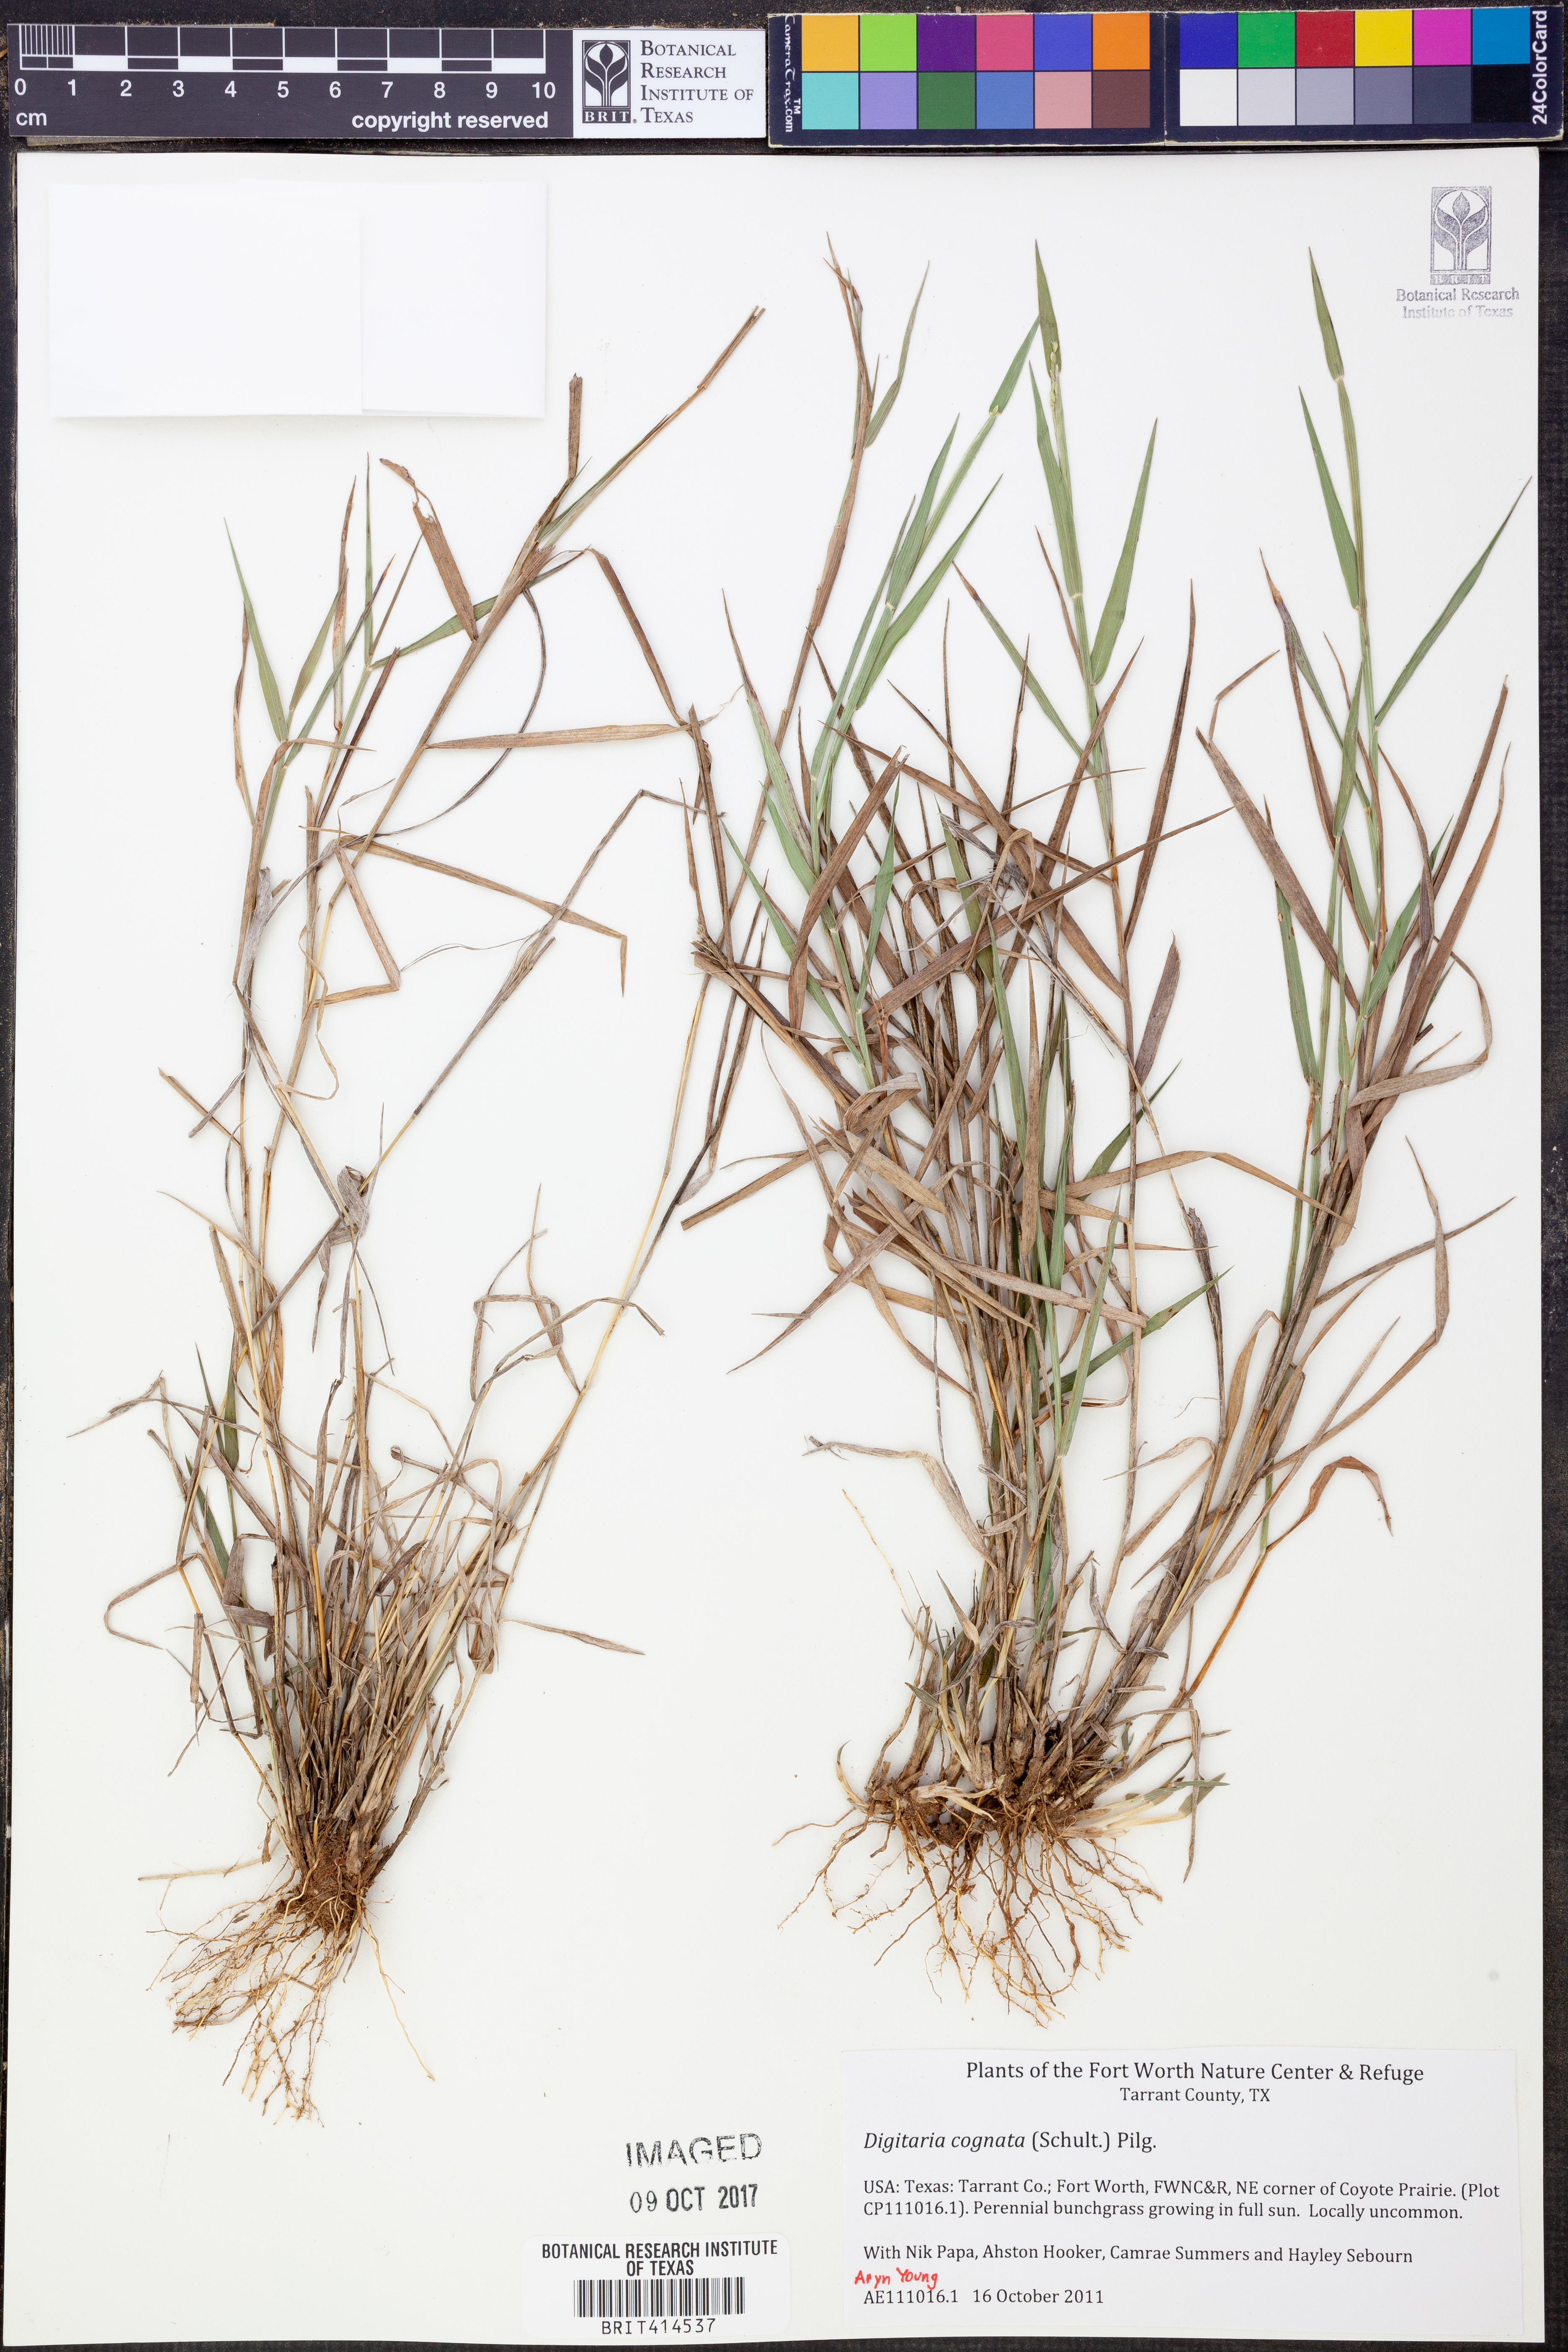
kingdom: Plantae
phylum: Tracheophyta
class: Liliopsida
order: Poales
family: Poaceae
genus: Digitaria
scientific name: Digitaria cognata
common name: Fall witchgrass
